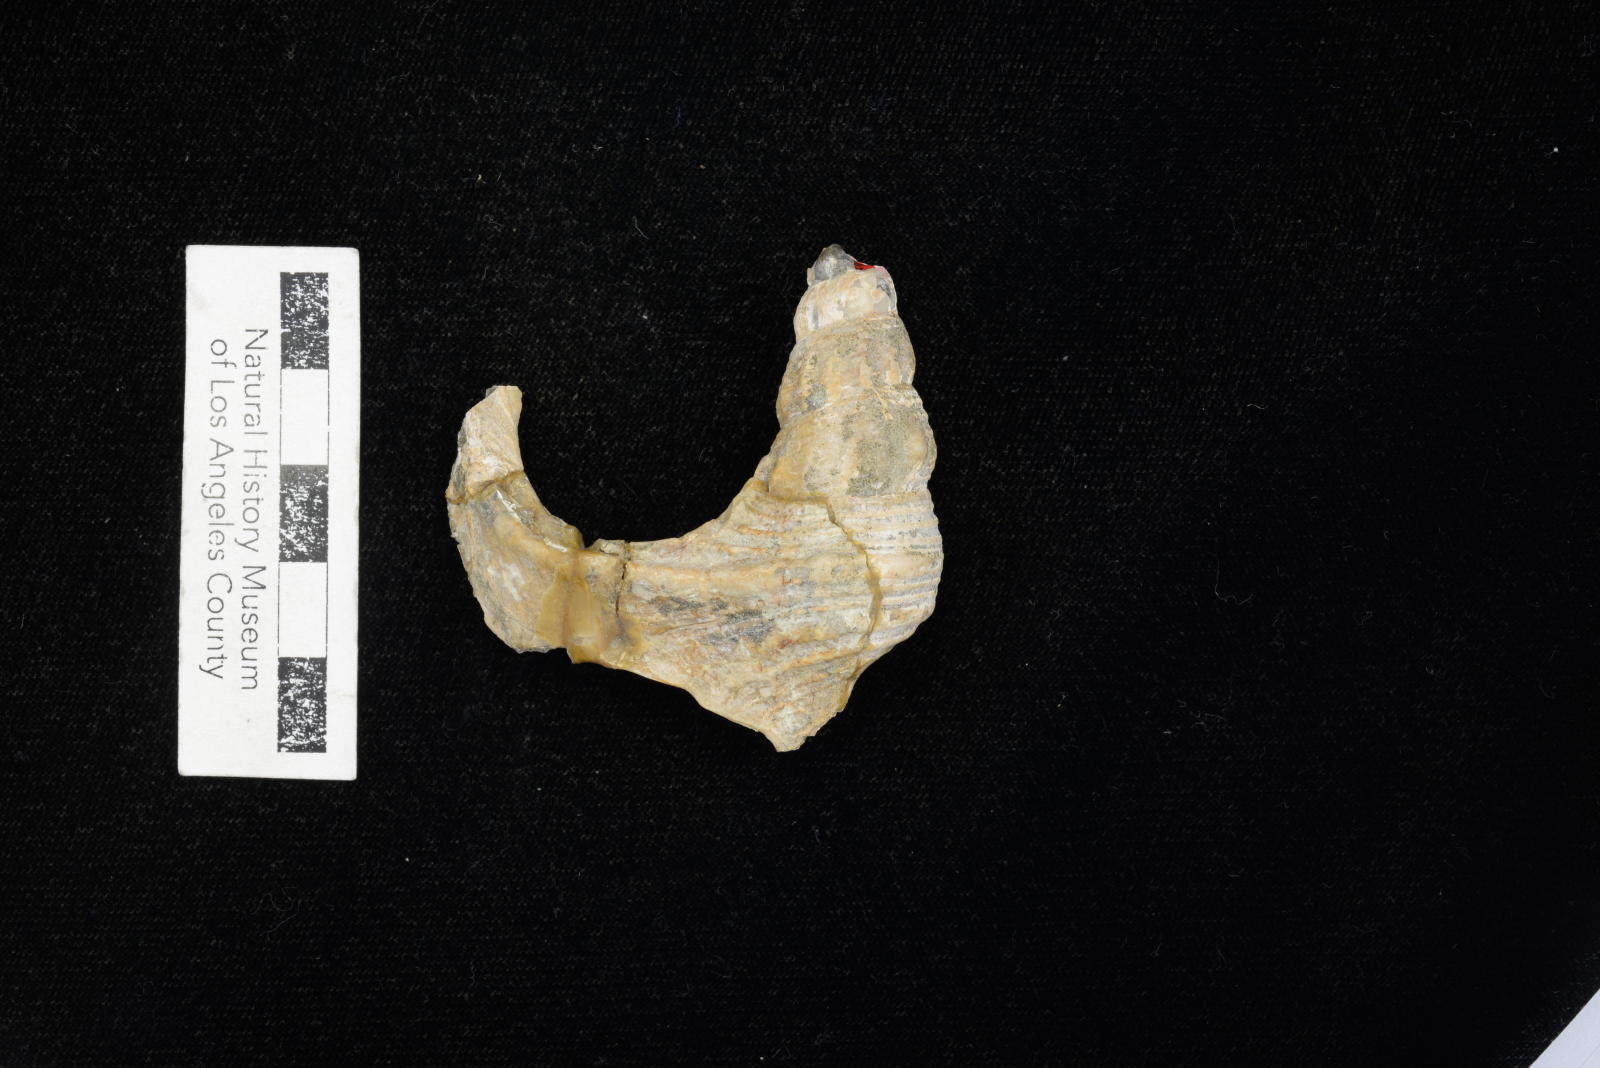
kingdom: Animalia
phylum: Mollusca
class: Gastropoda
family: Nerineidae
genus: Plesioptygmatis
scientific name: Plesioptygmatis Nerinea pseudoconvexa
